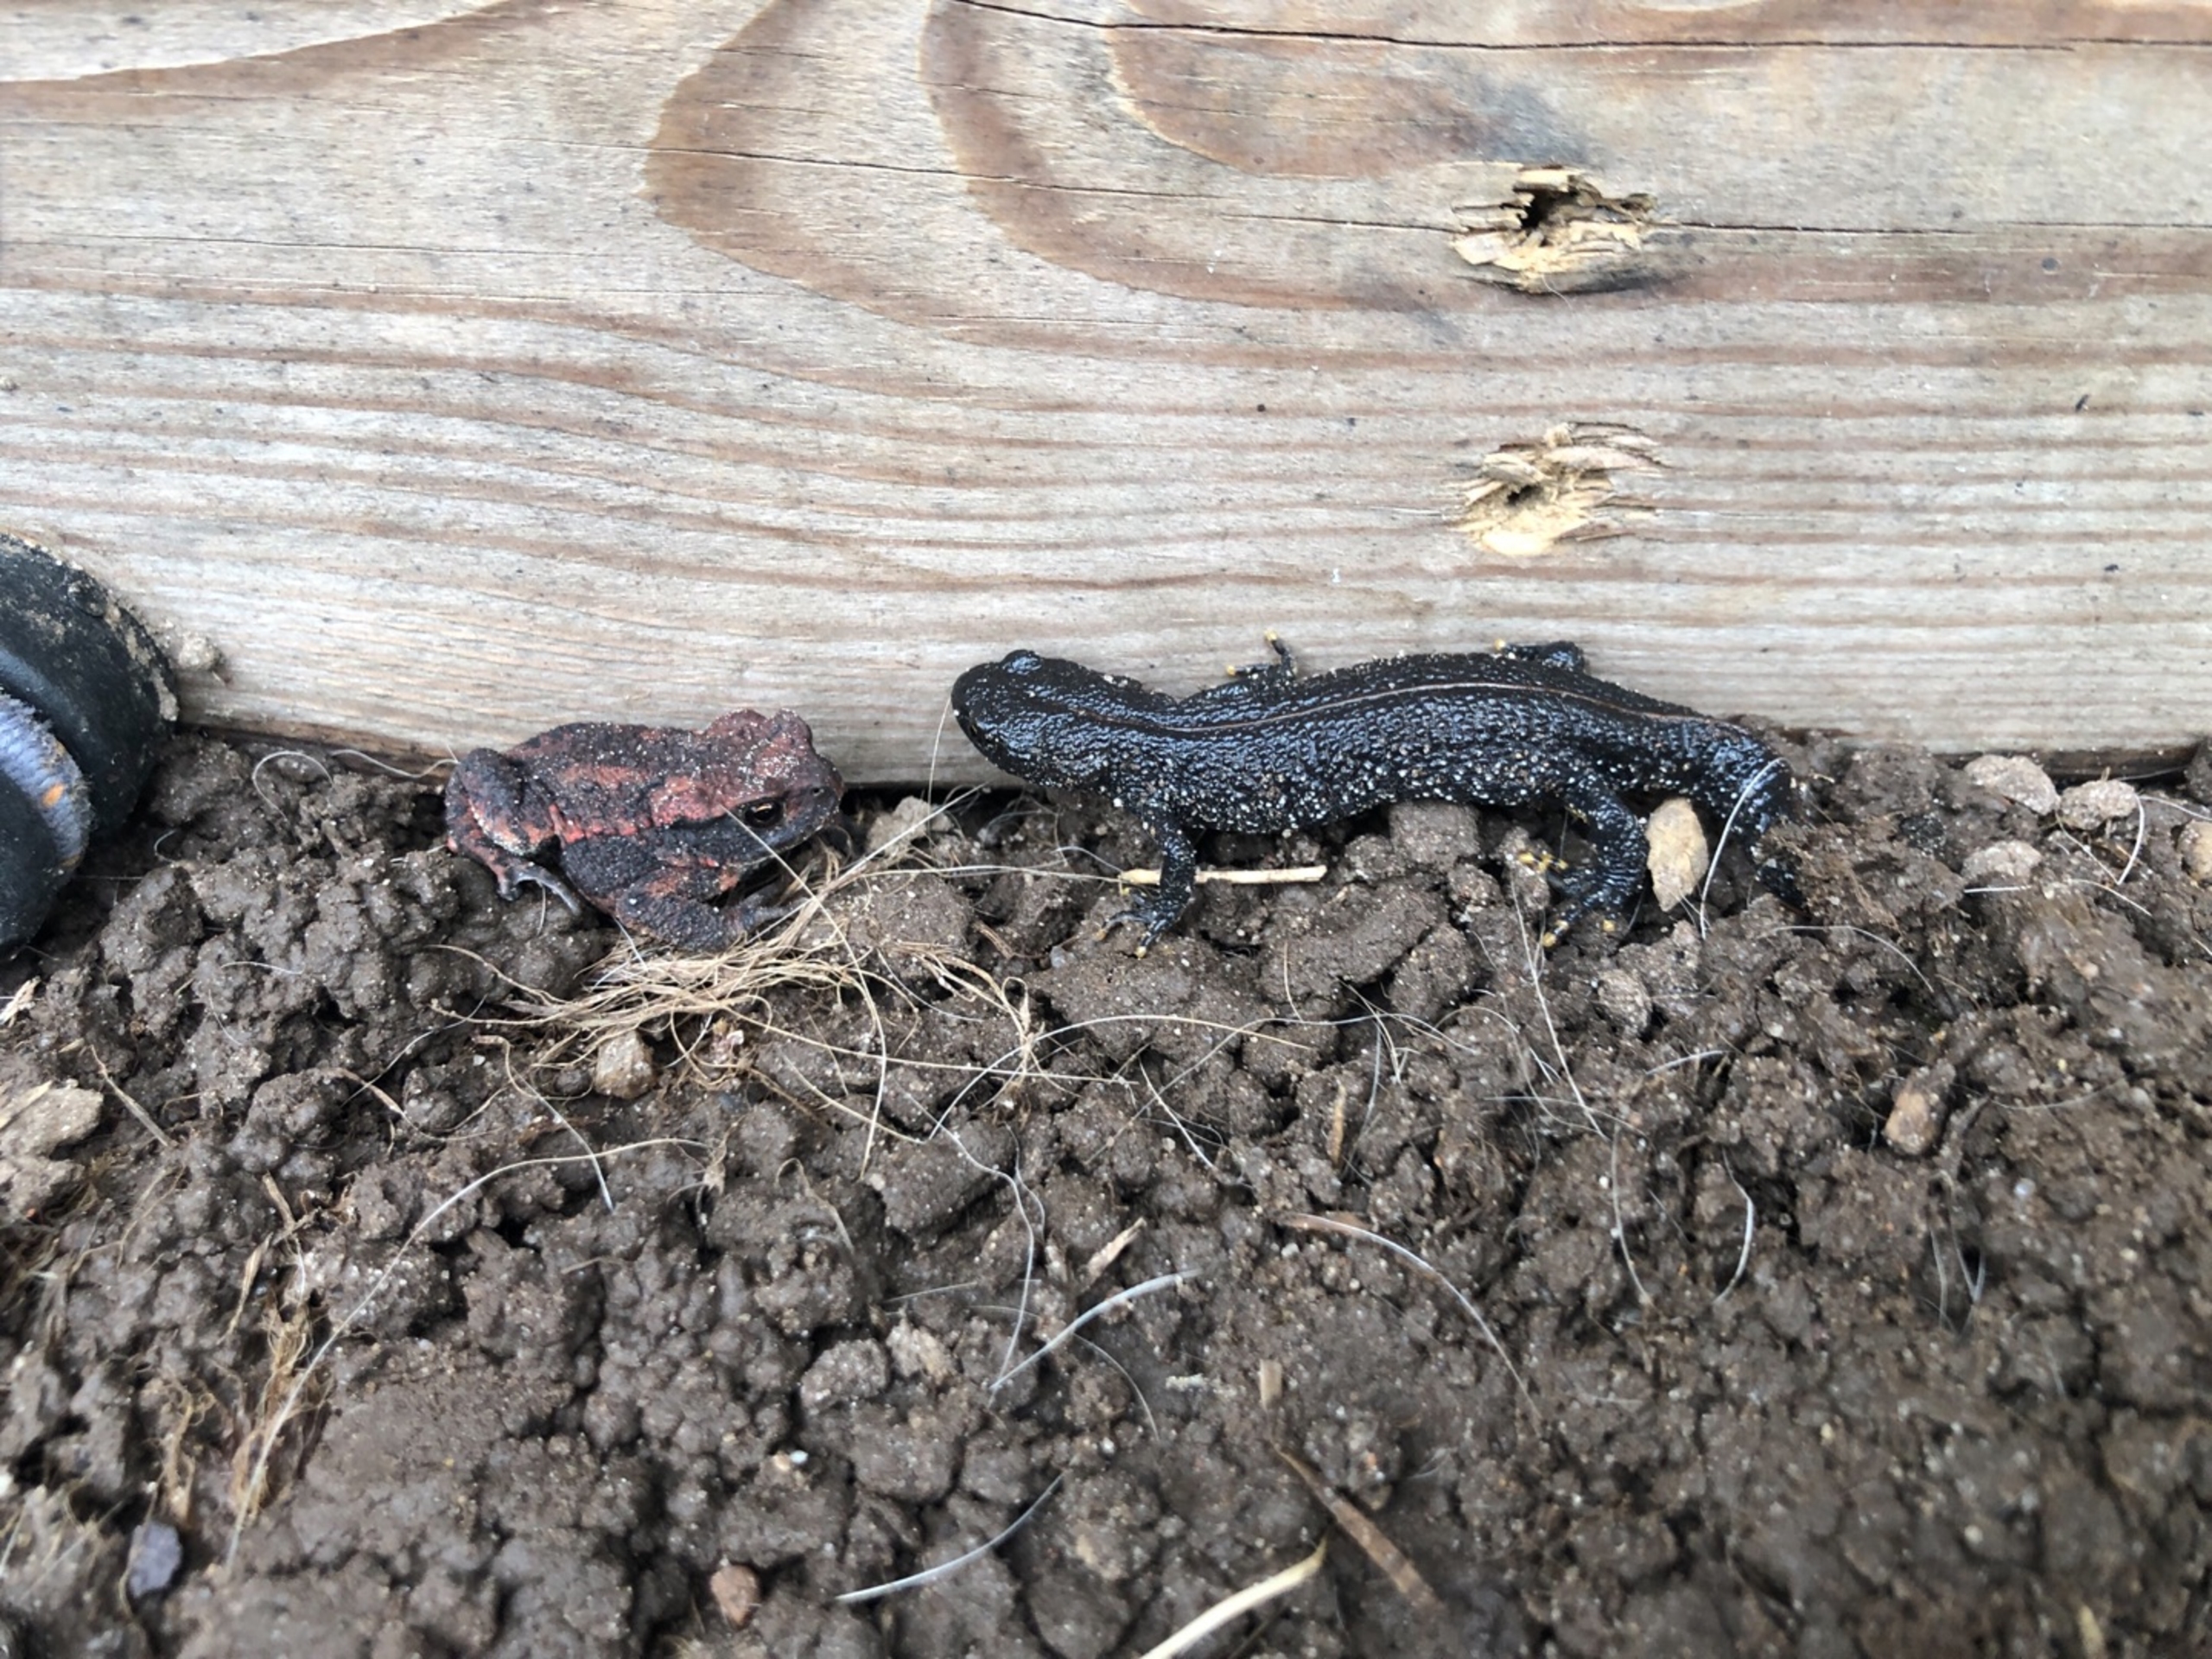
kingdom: Animalia
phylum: Chordata
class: Amphibia
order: Caudata
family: Salamandridae
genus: Triturus
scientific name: Triturus cristatus
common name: Stor vandsalamander
